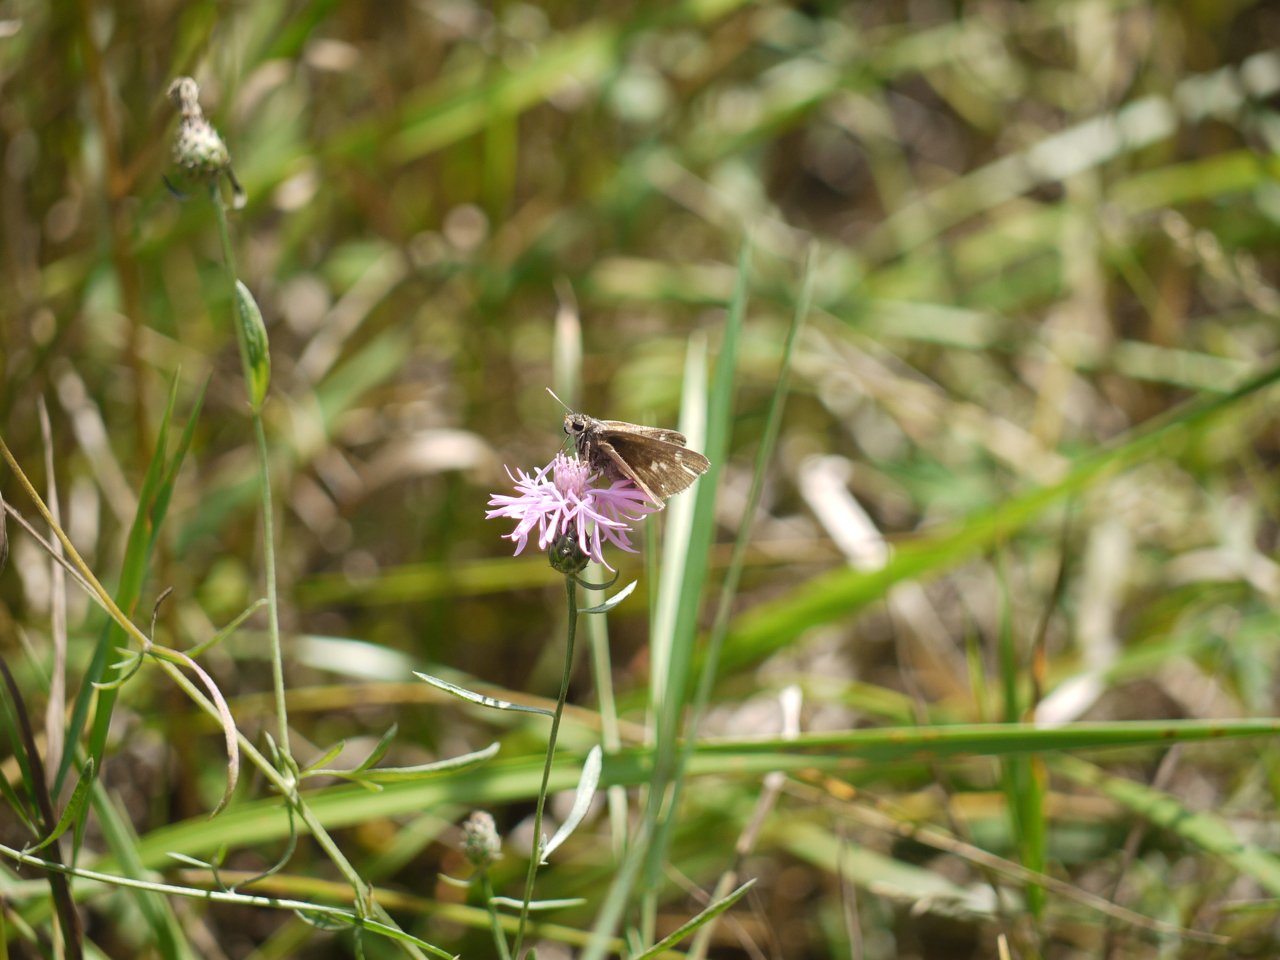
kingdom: Animalia
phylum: Arthropoda
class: Insecta
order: Lepidoptera
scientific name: Lepidoptera
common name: Butterflies
